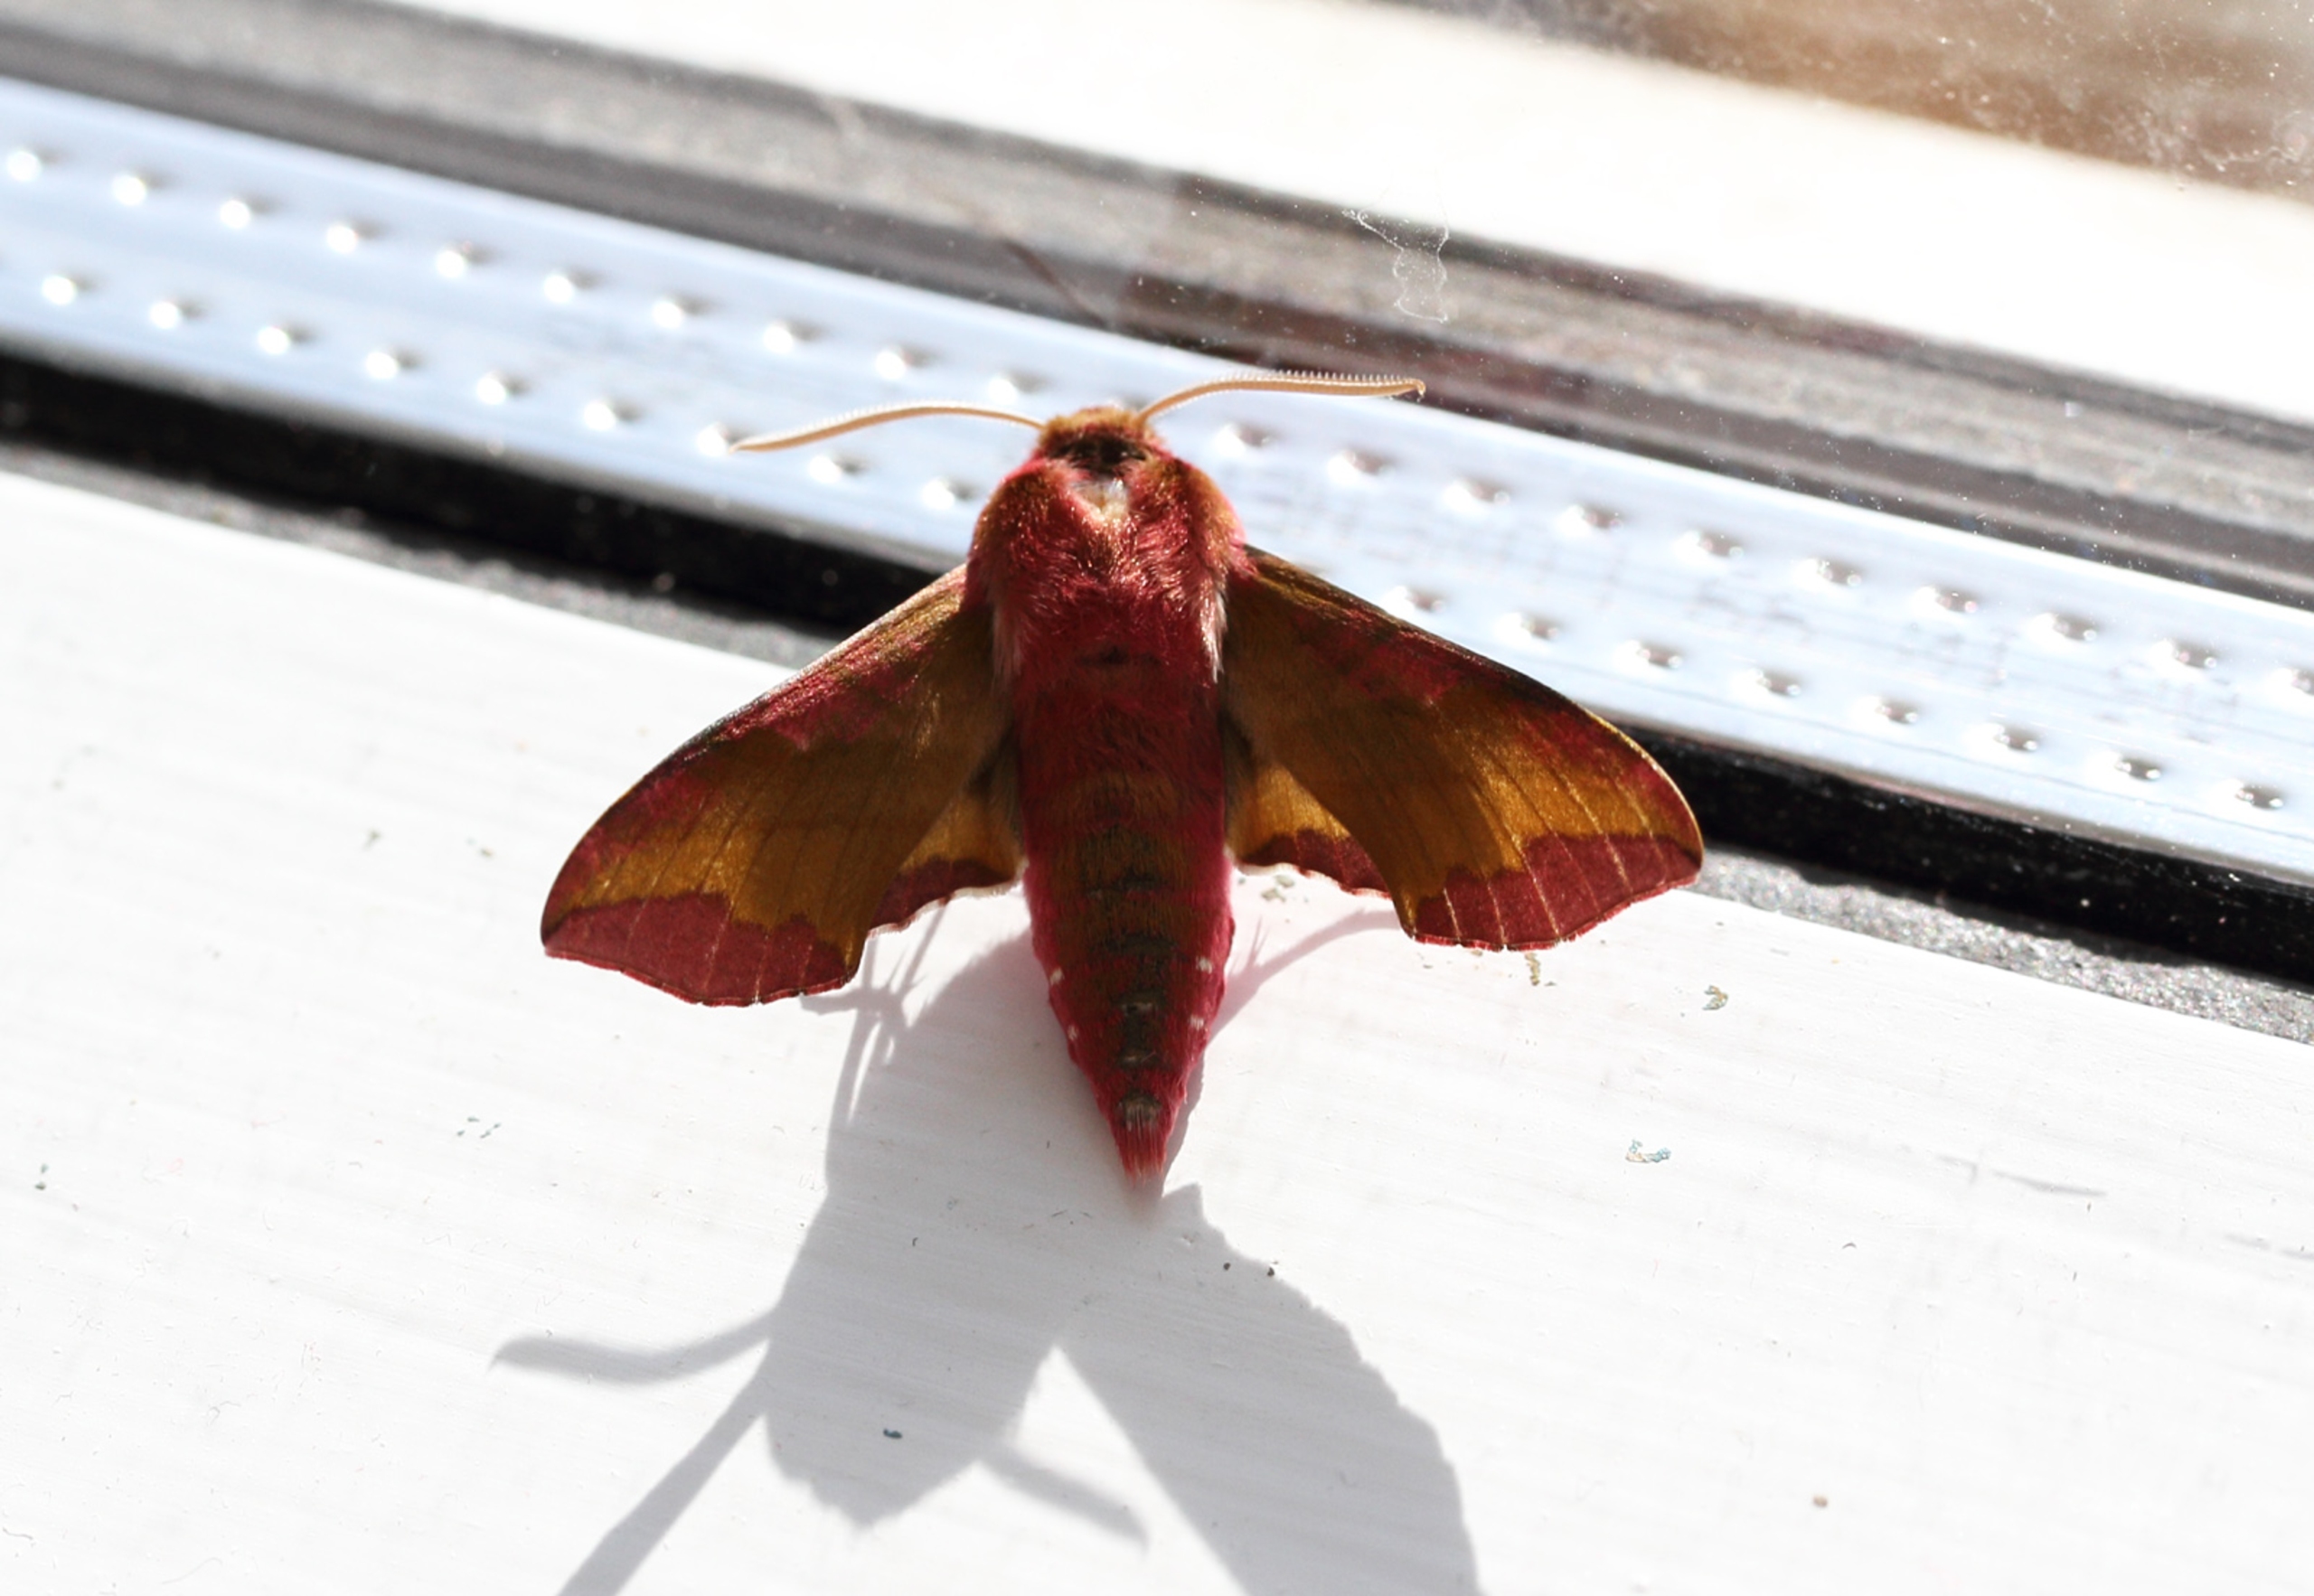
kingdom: Animalia
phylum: Arthropoda
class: Insecta
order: Lepidoptera
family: Sphingidae
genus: Deilephila
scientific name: Deilephila porcellus
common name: Lille vinsværmer
